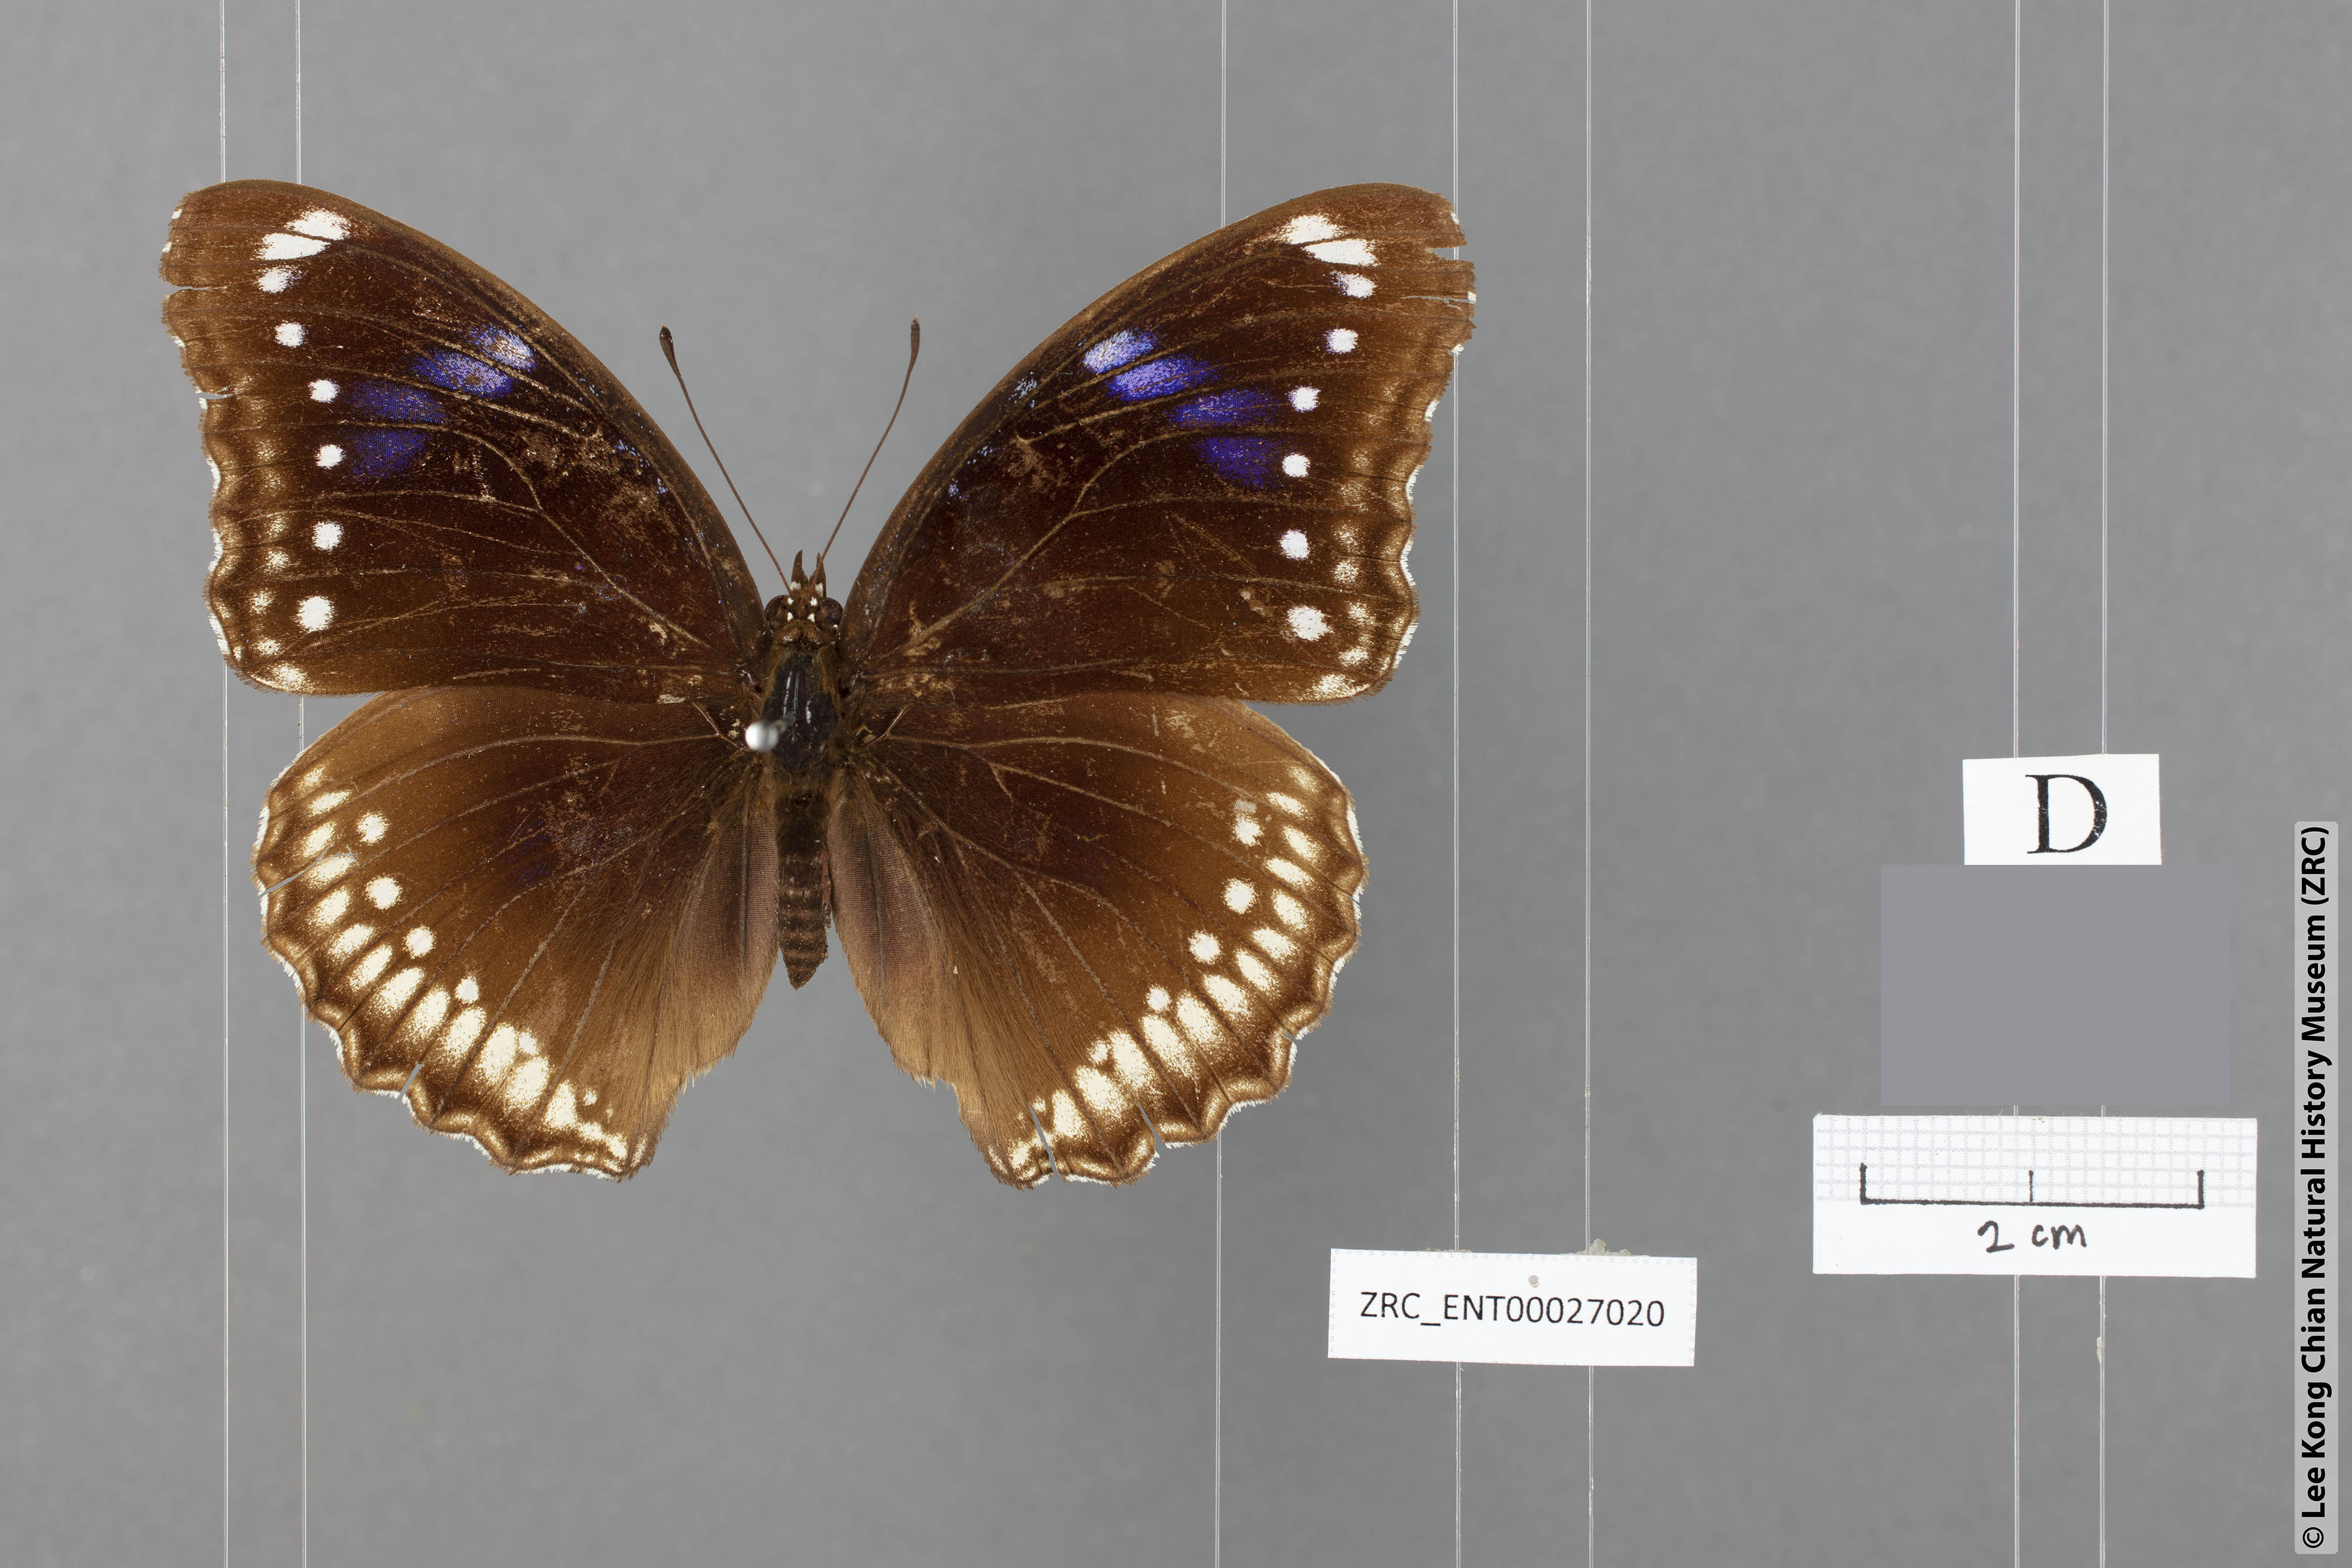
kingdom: Animalia
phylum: Arthropoda
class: Insecta
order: Lepidoptera
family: Nymphalidae
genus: Hypolimnas
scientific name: Hypolimnas bolina
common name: Great eggfly
